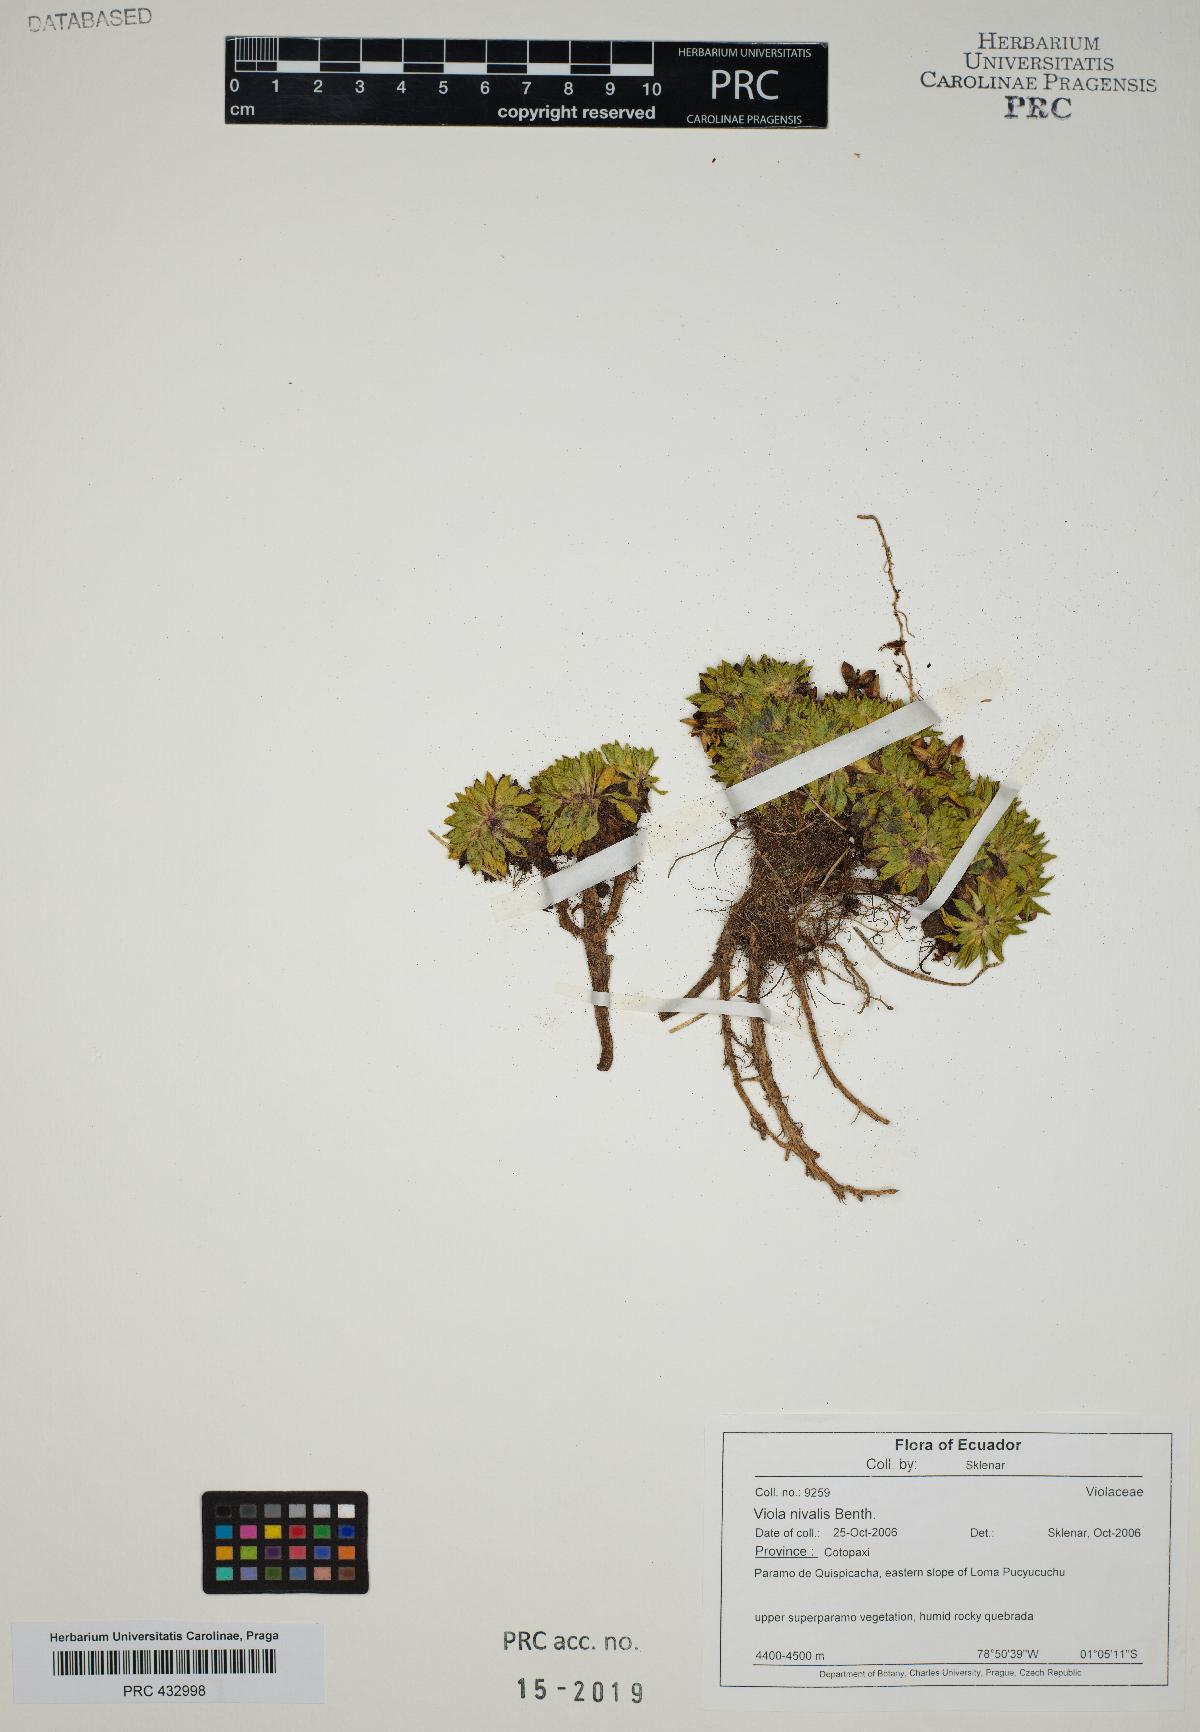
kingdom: Plantae
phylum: Tracheophyta
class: Magnoliopsida
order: Malpighiales
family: Violaceae
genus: Viola
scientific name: Viola bangii
